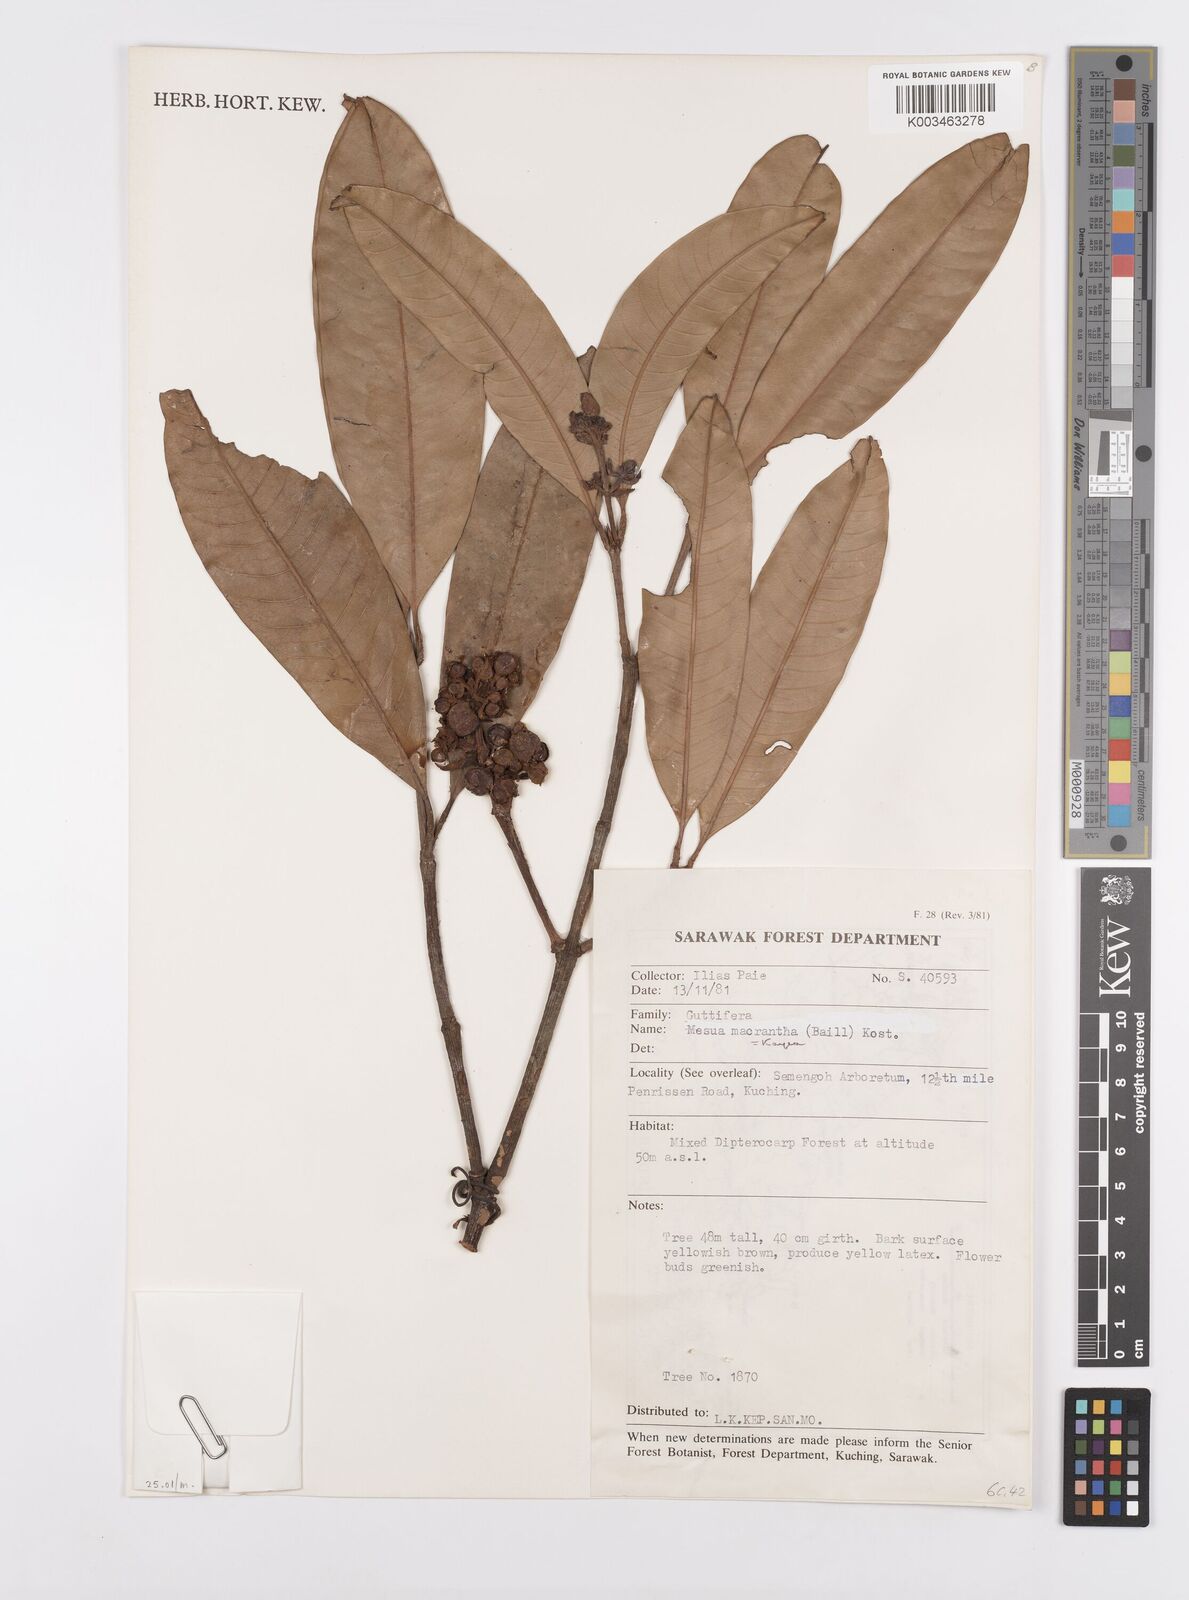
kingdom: Plantae
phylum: Tracheophyta
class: Magnoliopsida
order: Malpighiales
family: Calophyllaceae
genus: Kayea
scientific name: Kayea macrantha
